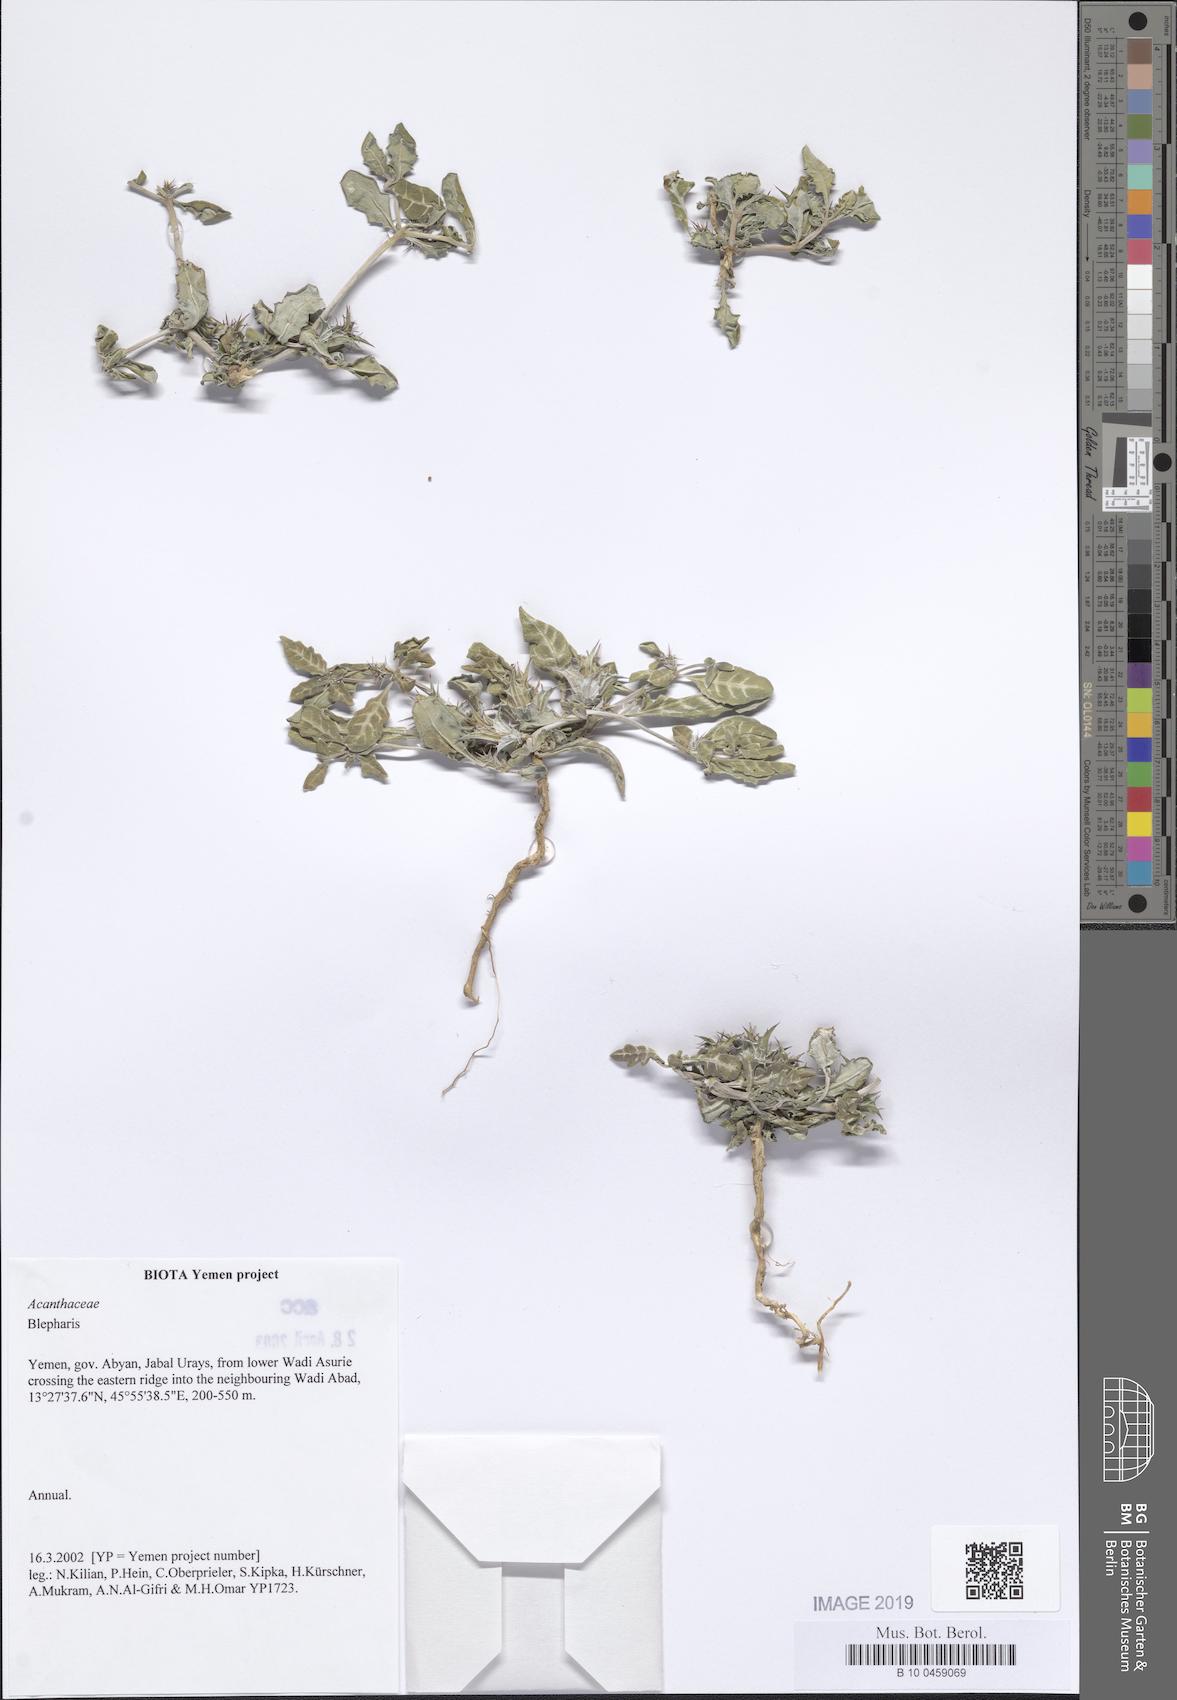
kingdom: Plantae
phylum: Tracheophyta
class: Magnoliopsida
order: Lamiales
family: Acanthaceae
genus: Blepharis
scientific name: Blepharis
